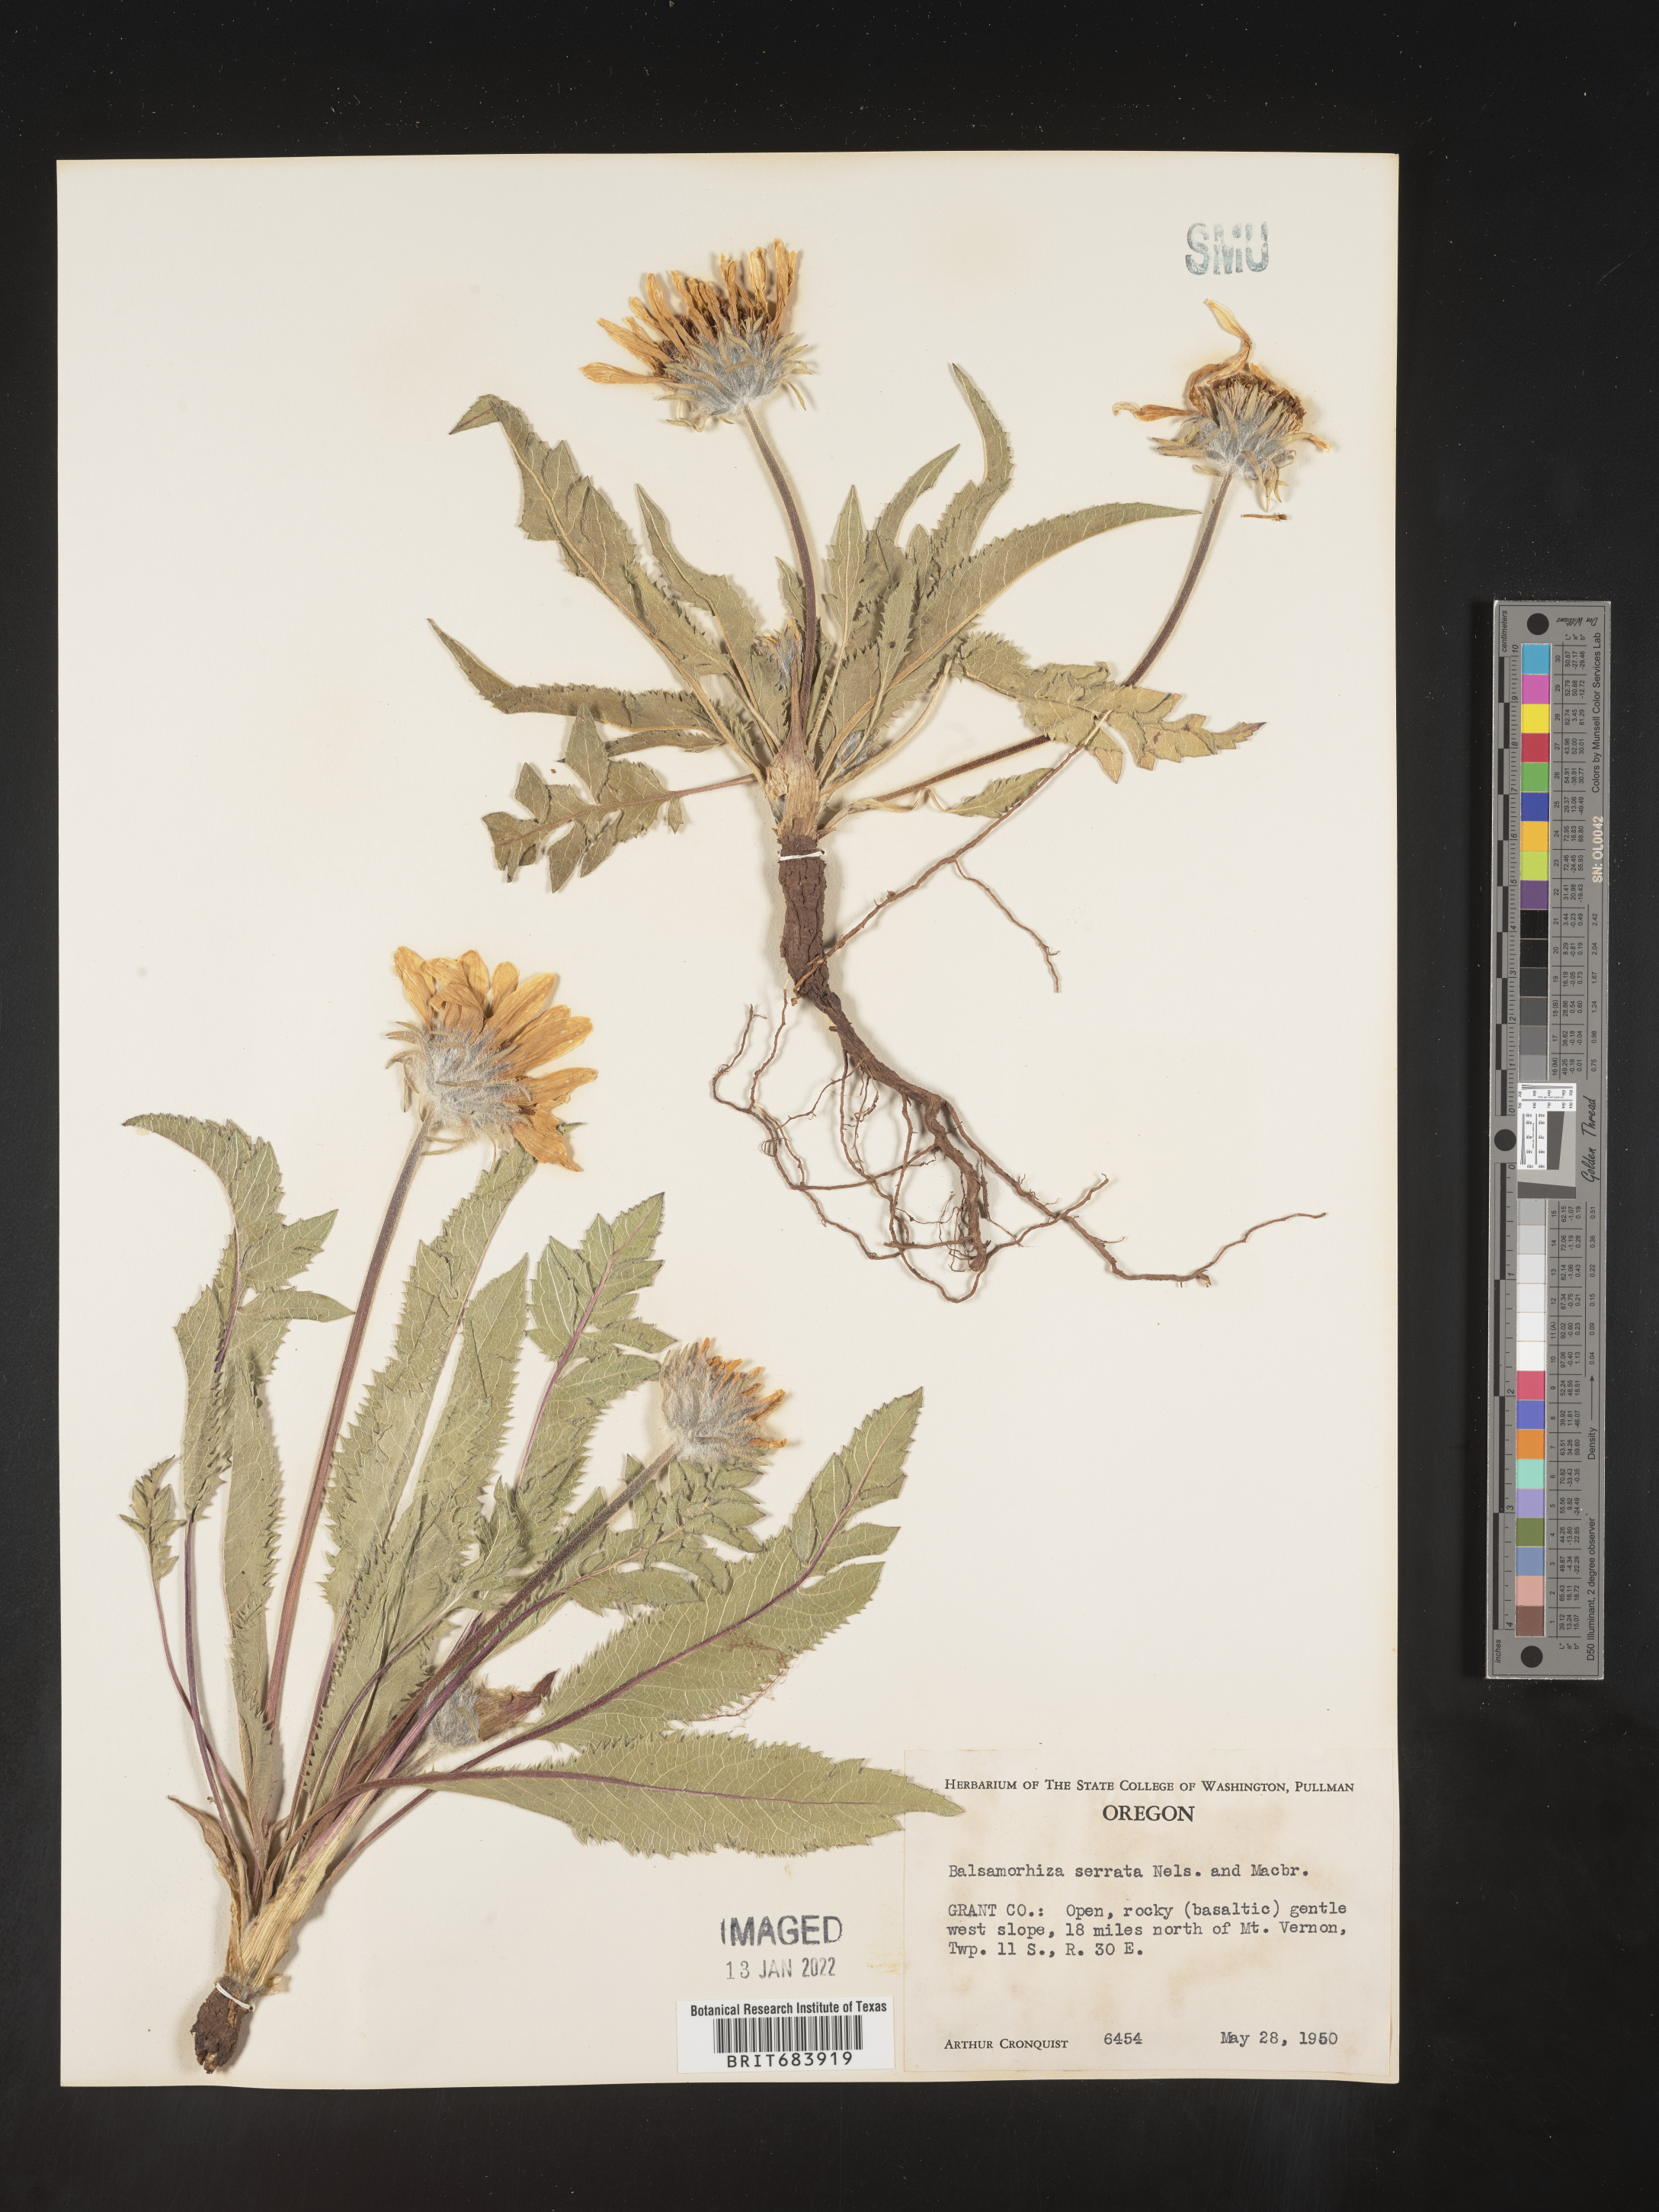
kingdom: Plantae
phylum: Tracheophyta
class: Magnoliopsida
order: Asterales
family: Asteraceae
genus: Balsamorhiza
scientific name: Balsamorhiza serrata
